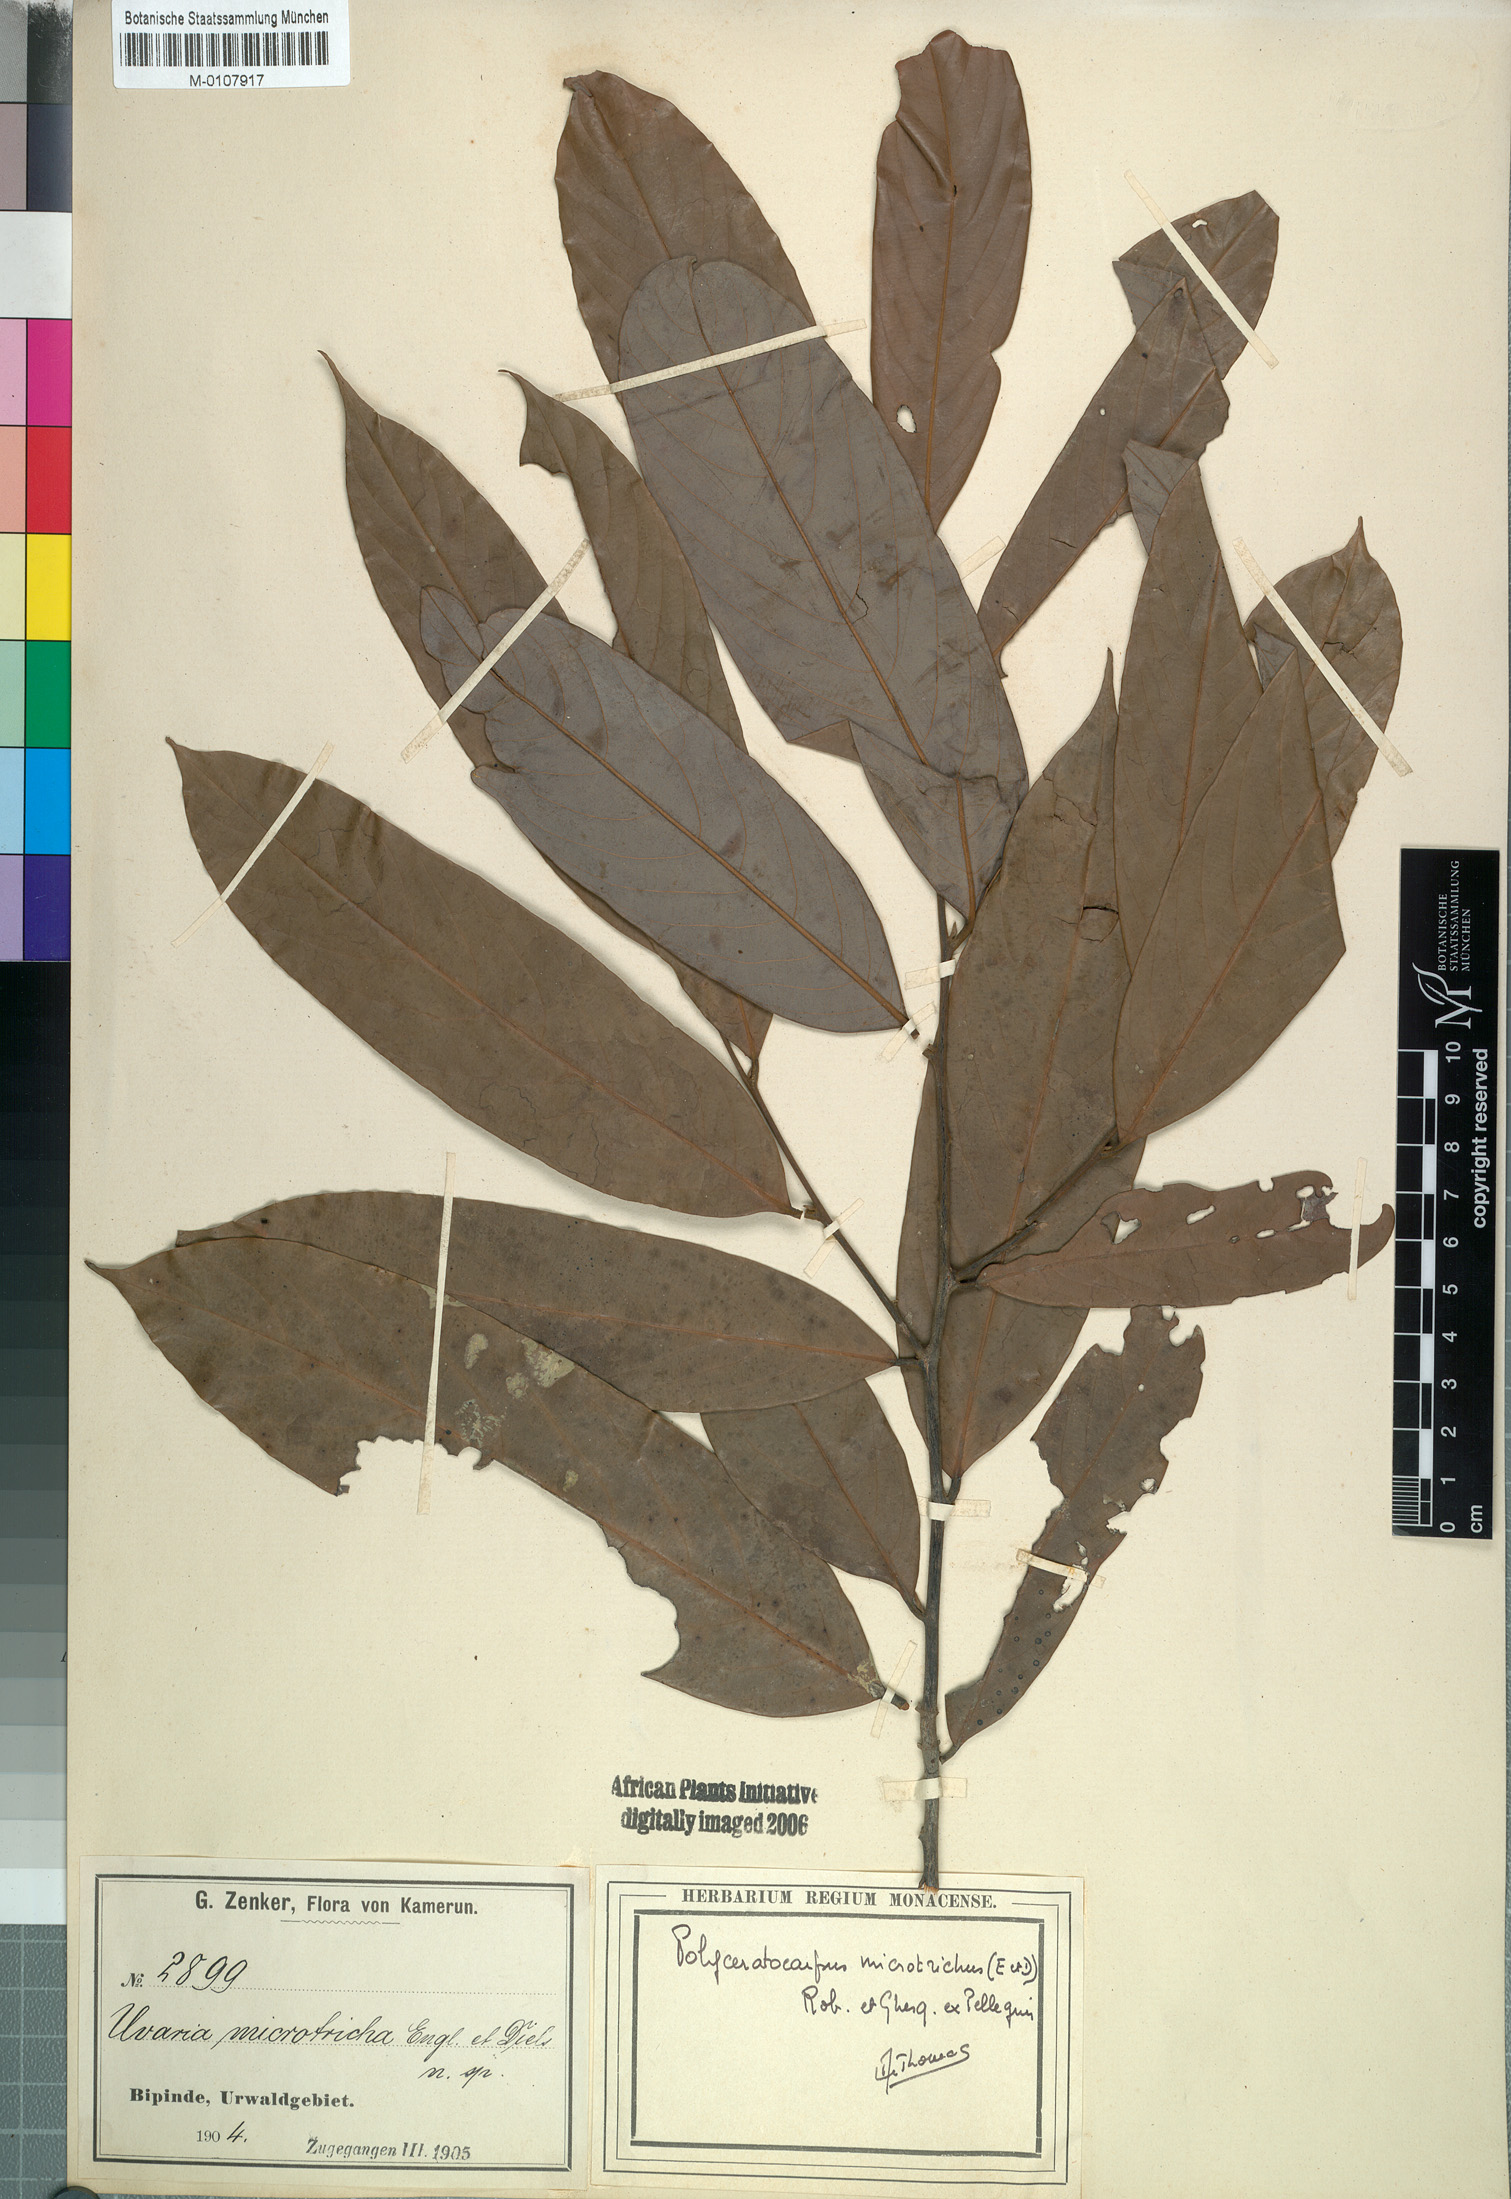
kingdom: Plantae
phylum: Tracheophyta
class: Magnoliopsida
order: Magnoliales
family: Annonaceae
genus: Polyceratocarpus
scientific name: Polyceratocarpus microtrichus
